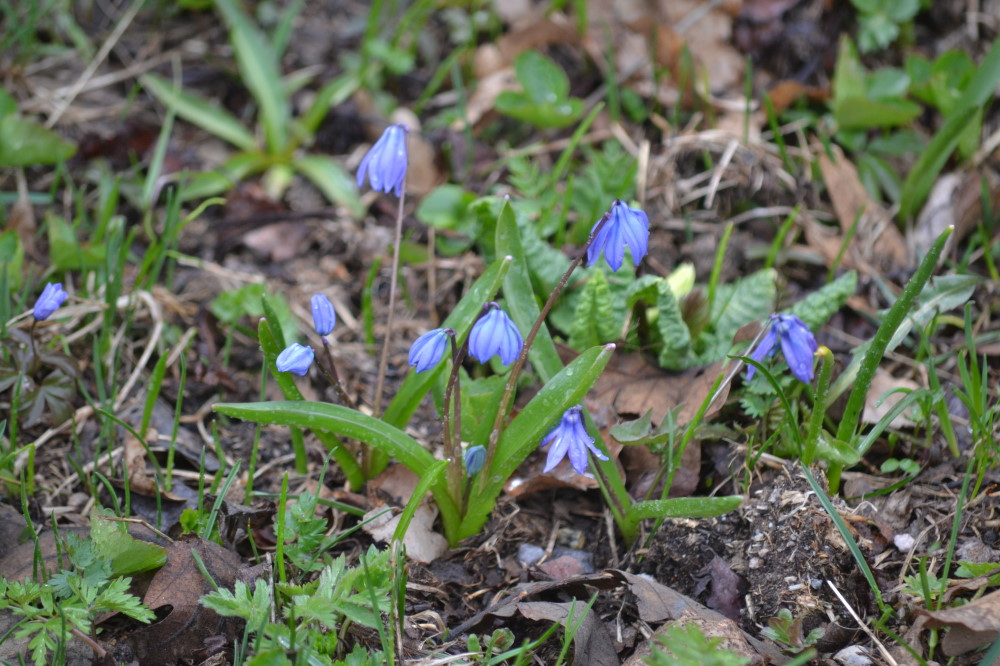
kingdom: Plantae
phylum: Tracheophyta
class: Liliopsida
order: Asparagales
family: Asparagaceae
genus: Scilla
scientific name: Scilla siberica
